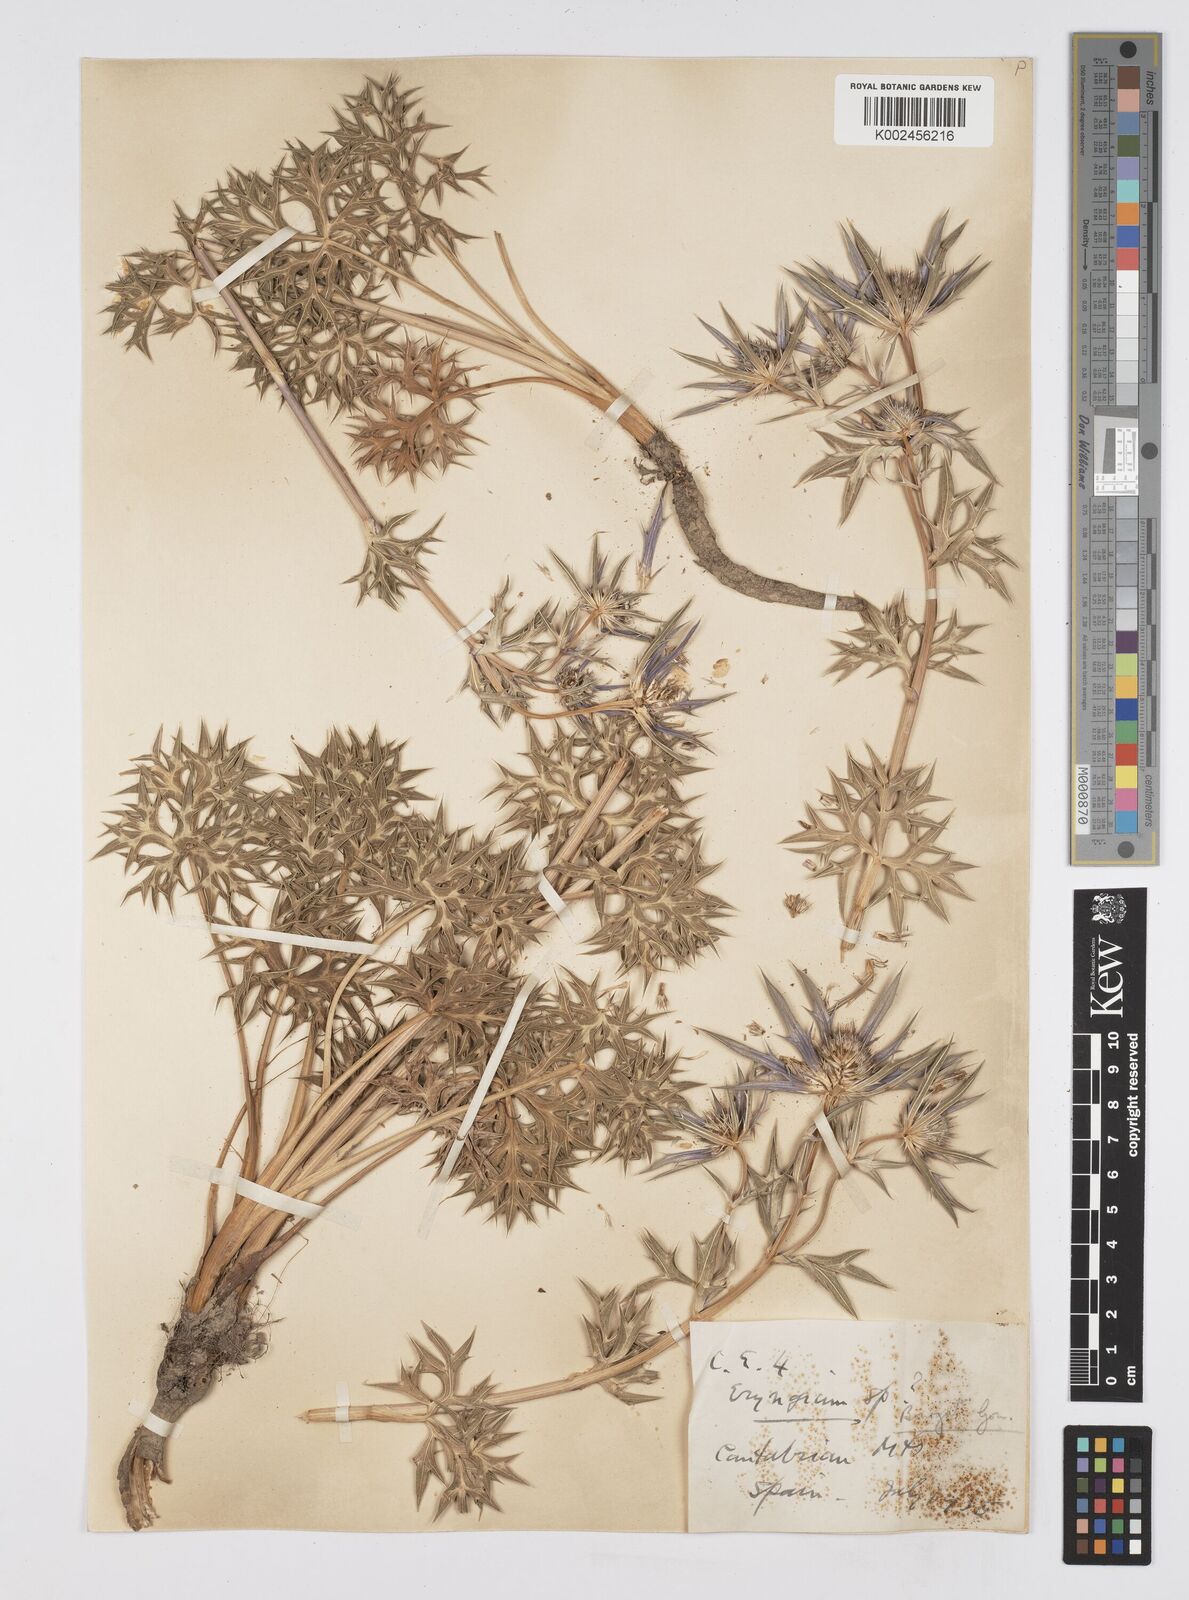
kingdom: Plantae
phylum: Tracheophyta
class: Magnoliopsida
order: Apiales
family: Apiaceae
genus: Eryngium
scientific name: Eryngium bourgatii
